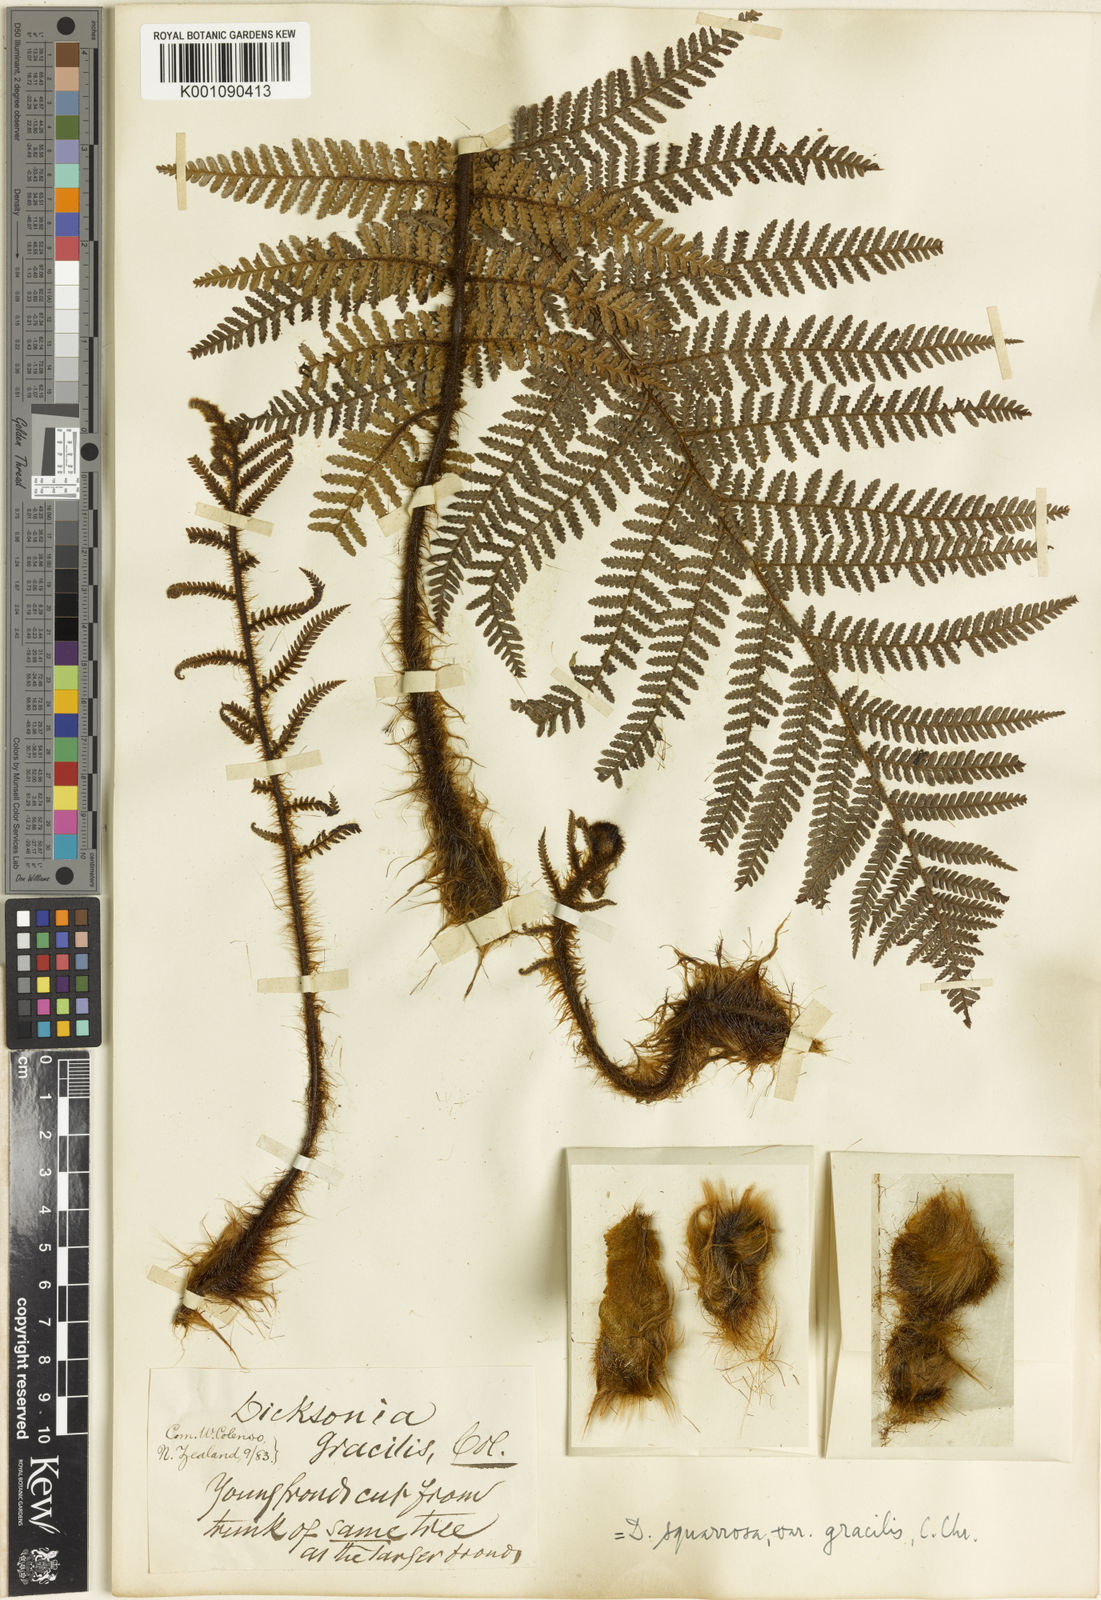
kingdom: Plantae
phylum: Tracheophyta
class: Polypodiopsida
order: Cyatheales
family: Dicksoniaceae
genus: Dicksonia
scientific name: Dicksonia squarrosa
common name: Hard treefern
